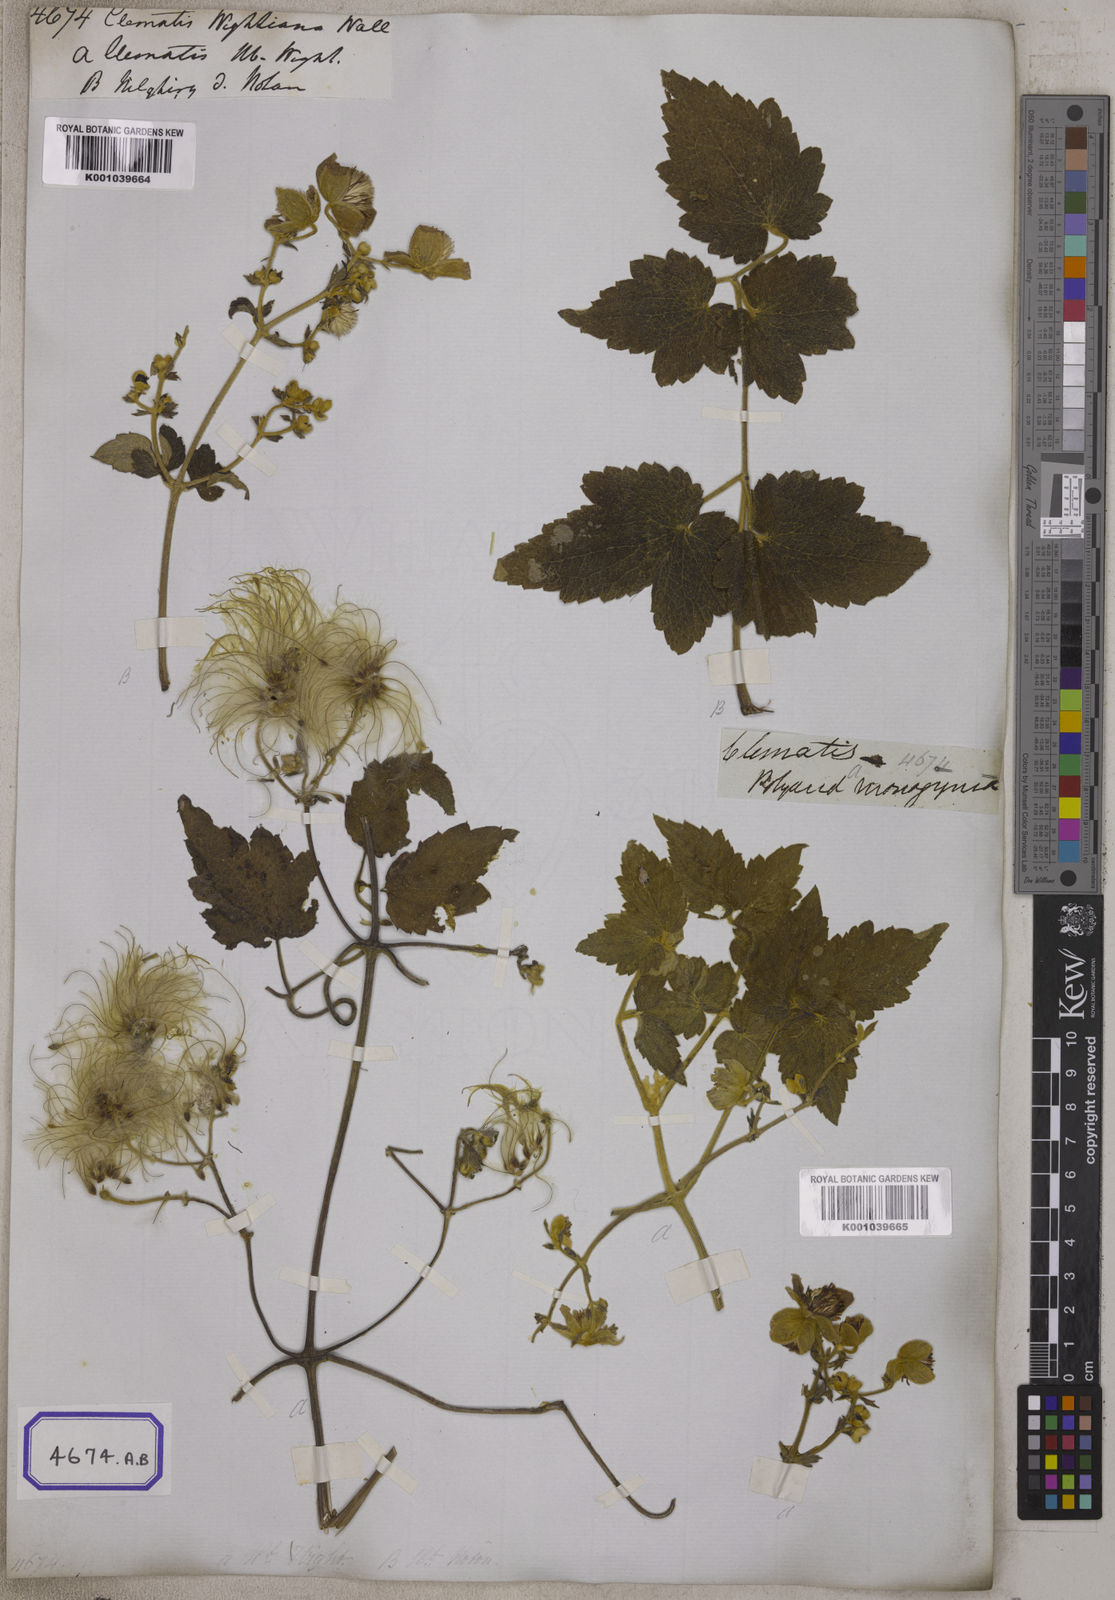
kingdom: Plantae
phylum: Tracheophyta
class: Magnoliopsida
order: Ranunculales
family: Ranunculaceae
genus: Clematis
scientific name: Clematis
